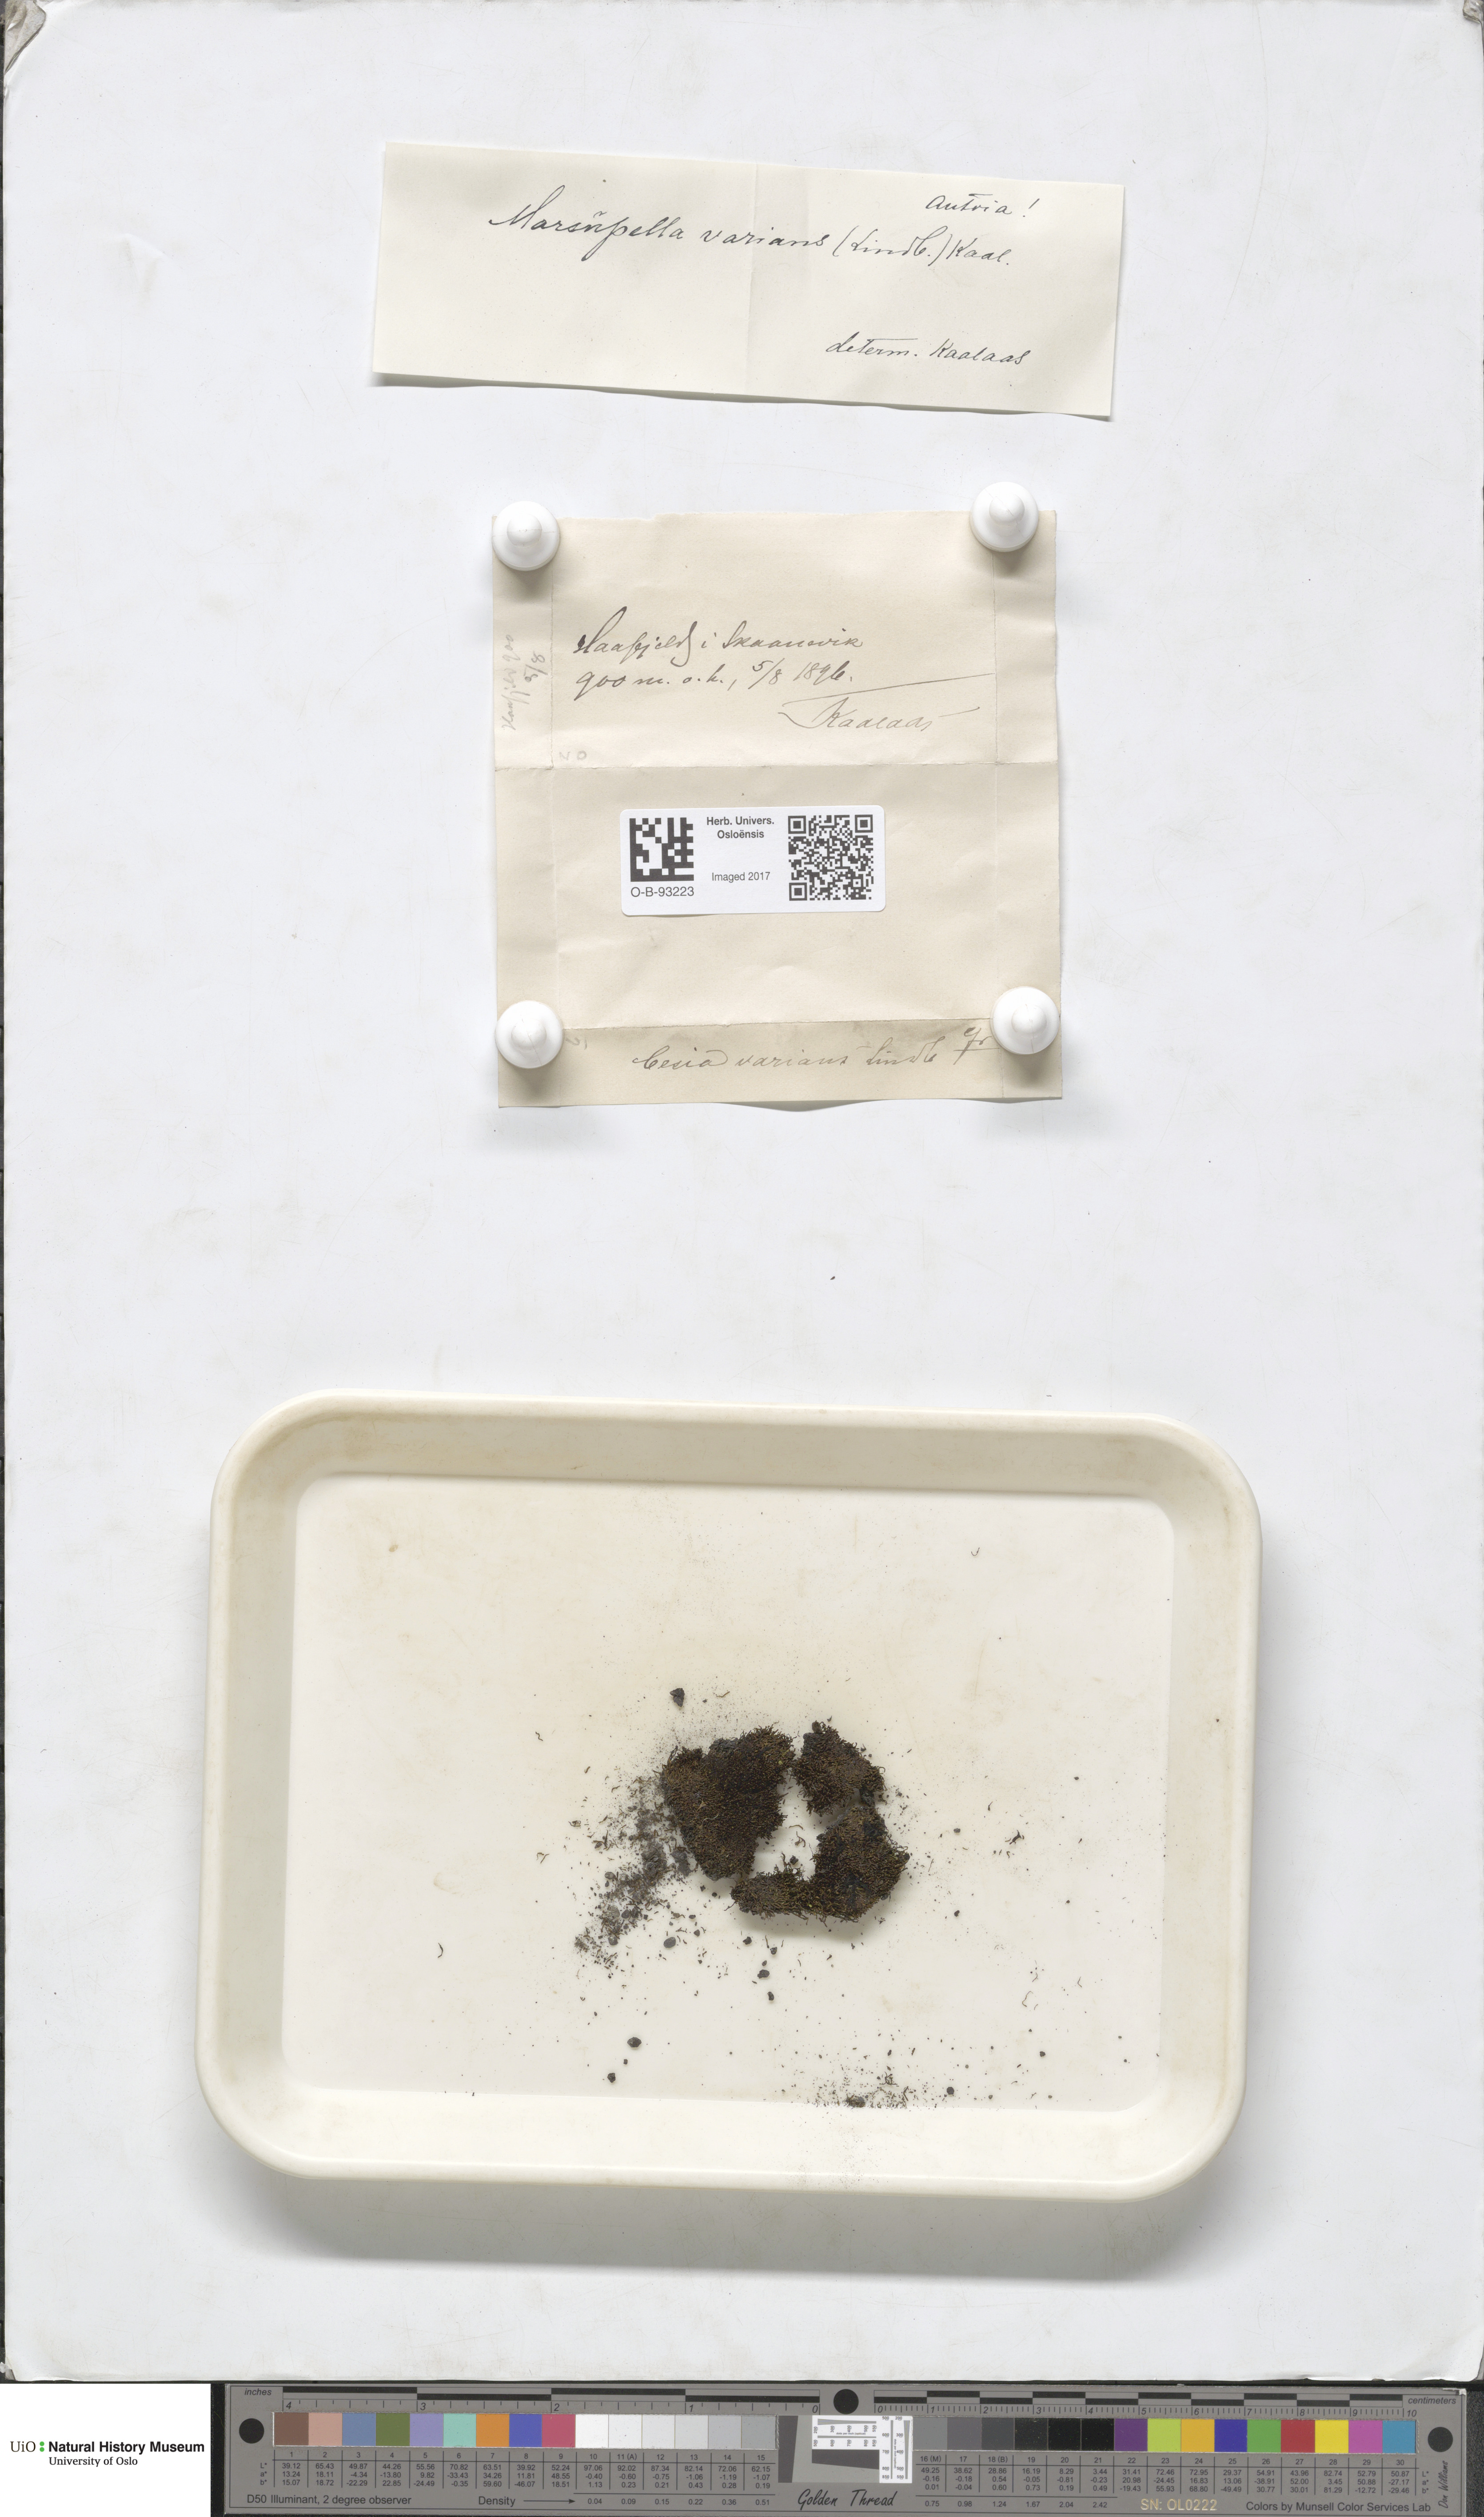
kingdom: Plantae
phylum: Marchantiophyta
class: Jungermanniopsida
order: Jungermanniales
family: Gymnomitriaceae
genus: Gymnomitrion
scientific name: Gymnomitrion brevissimum
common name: Snow rustwort
